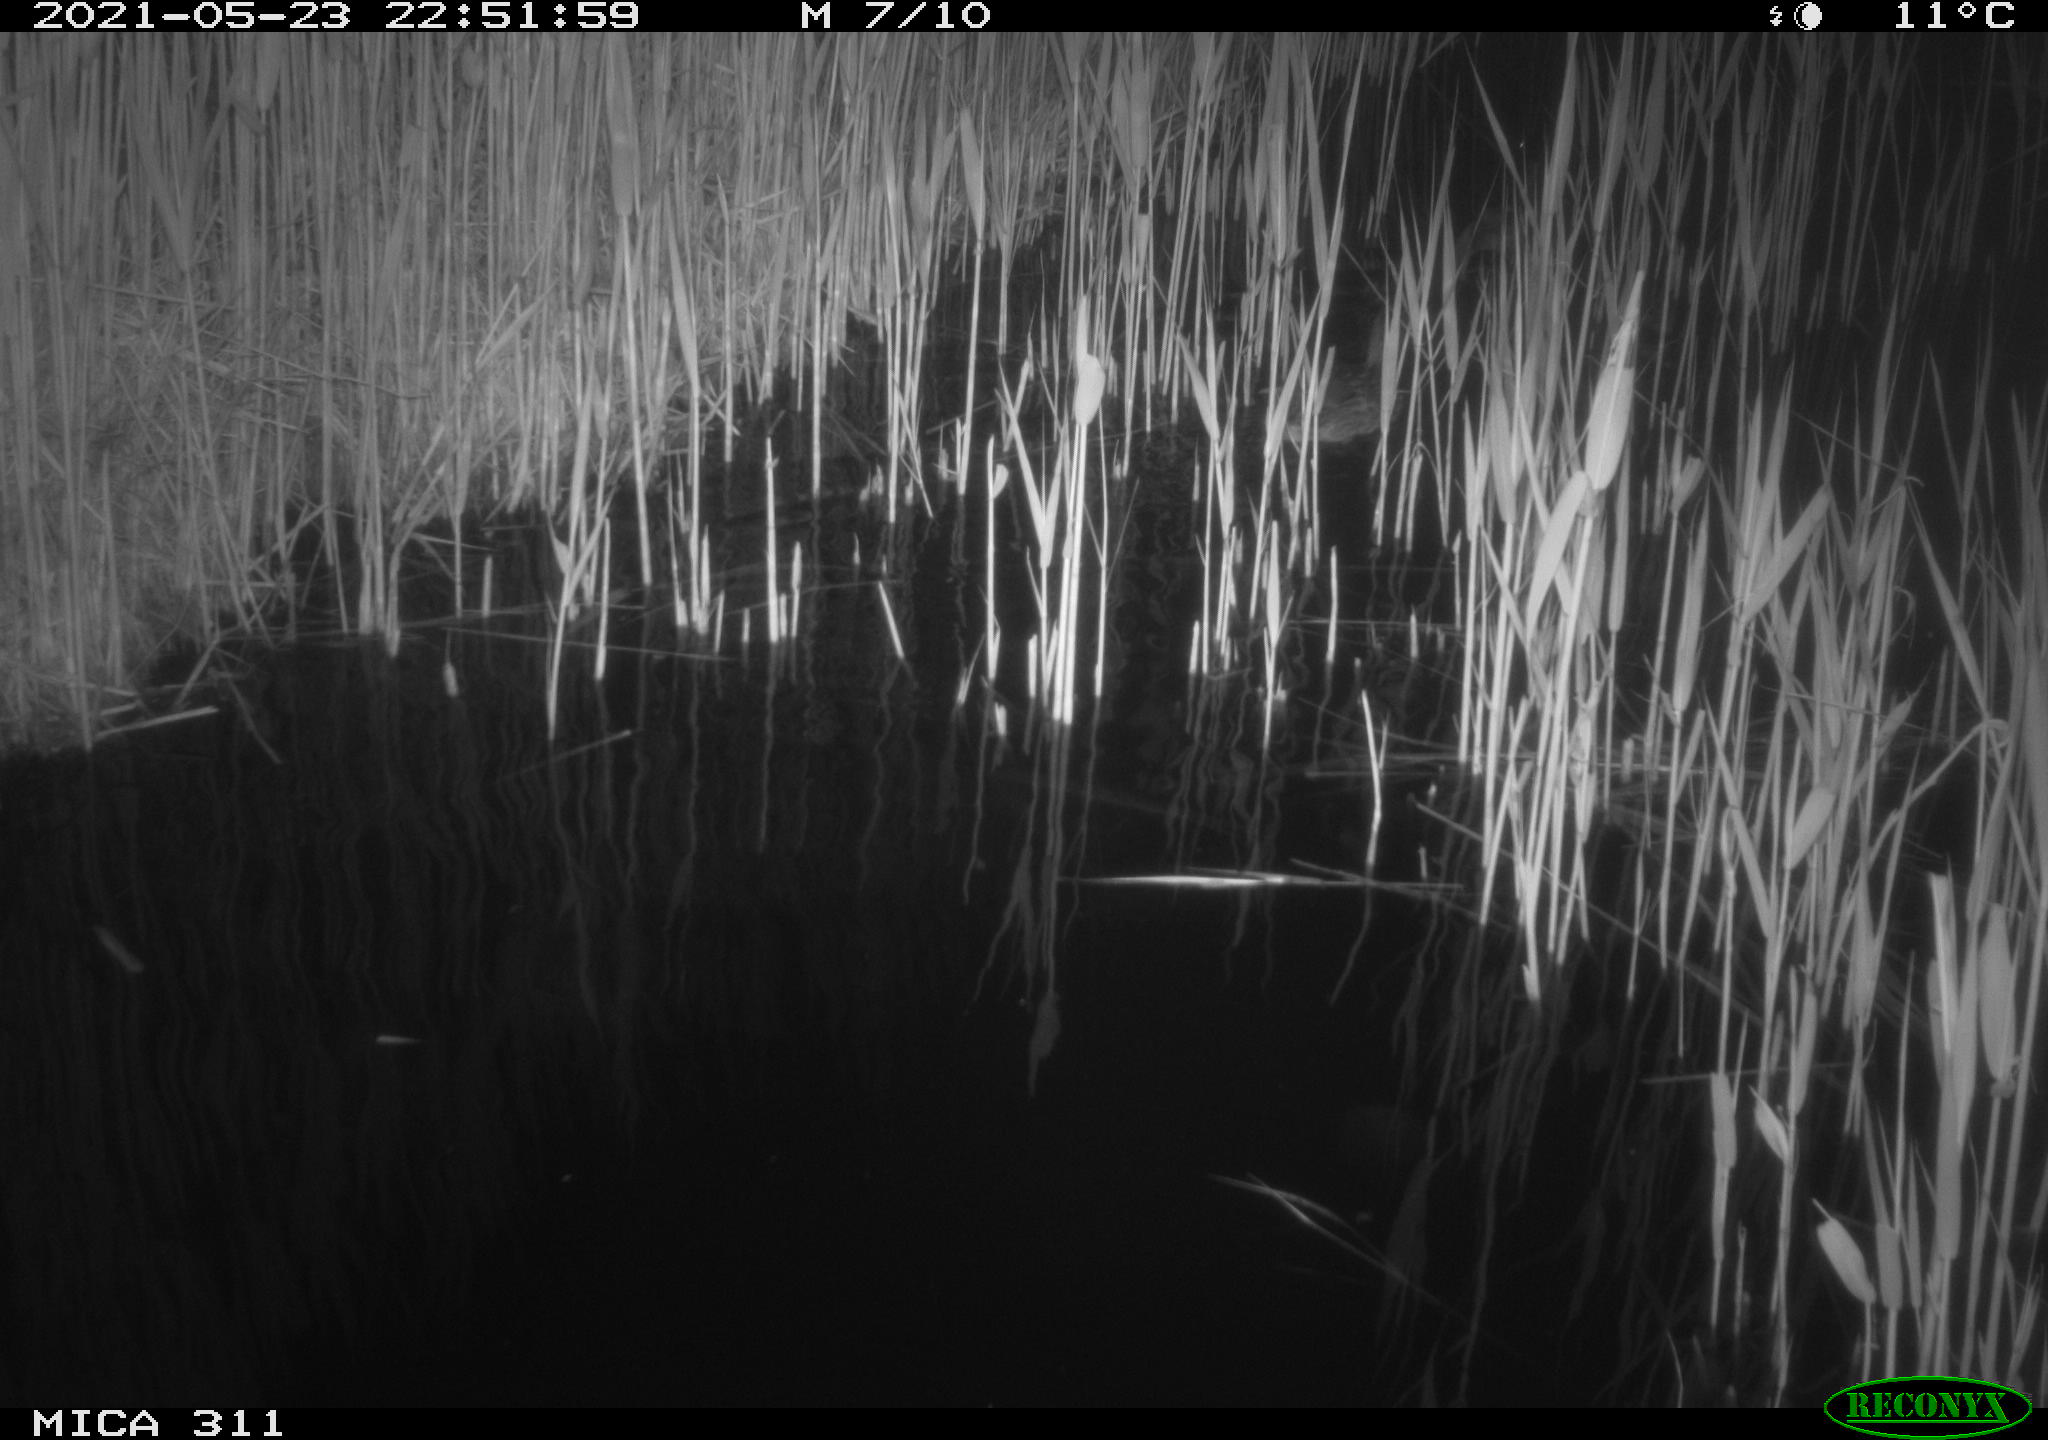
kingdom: Animalia
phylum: Chordata
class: Aves
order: Anseriformes
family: Anatidae
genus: Anas
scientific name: Anas platyrhynchos
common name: Mallard
